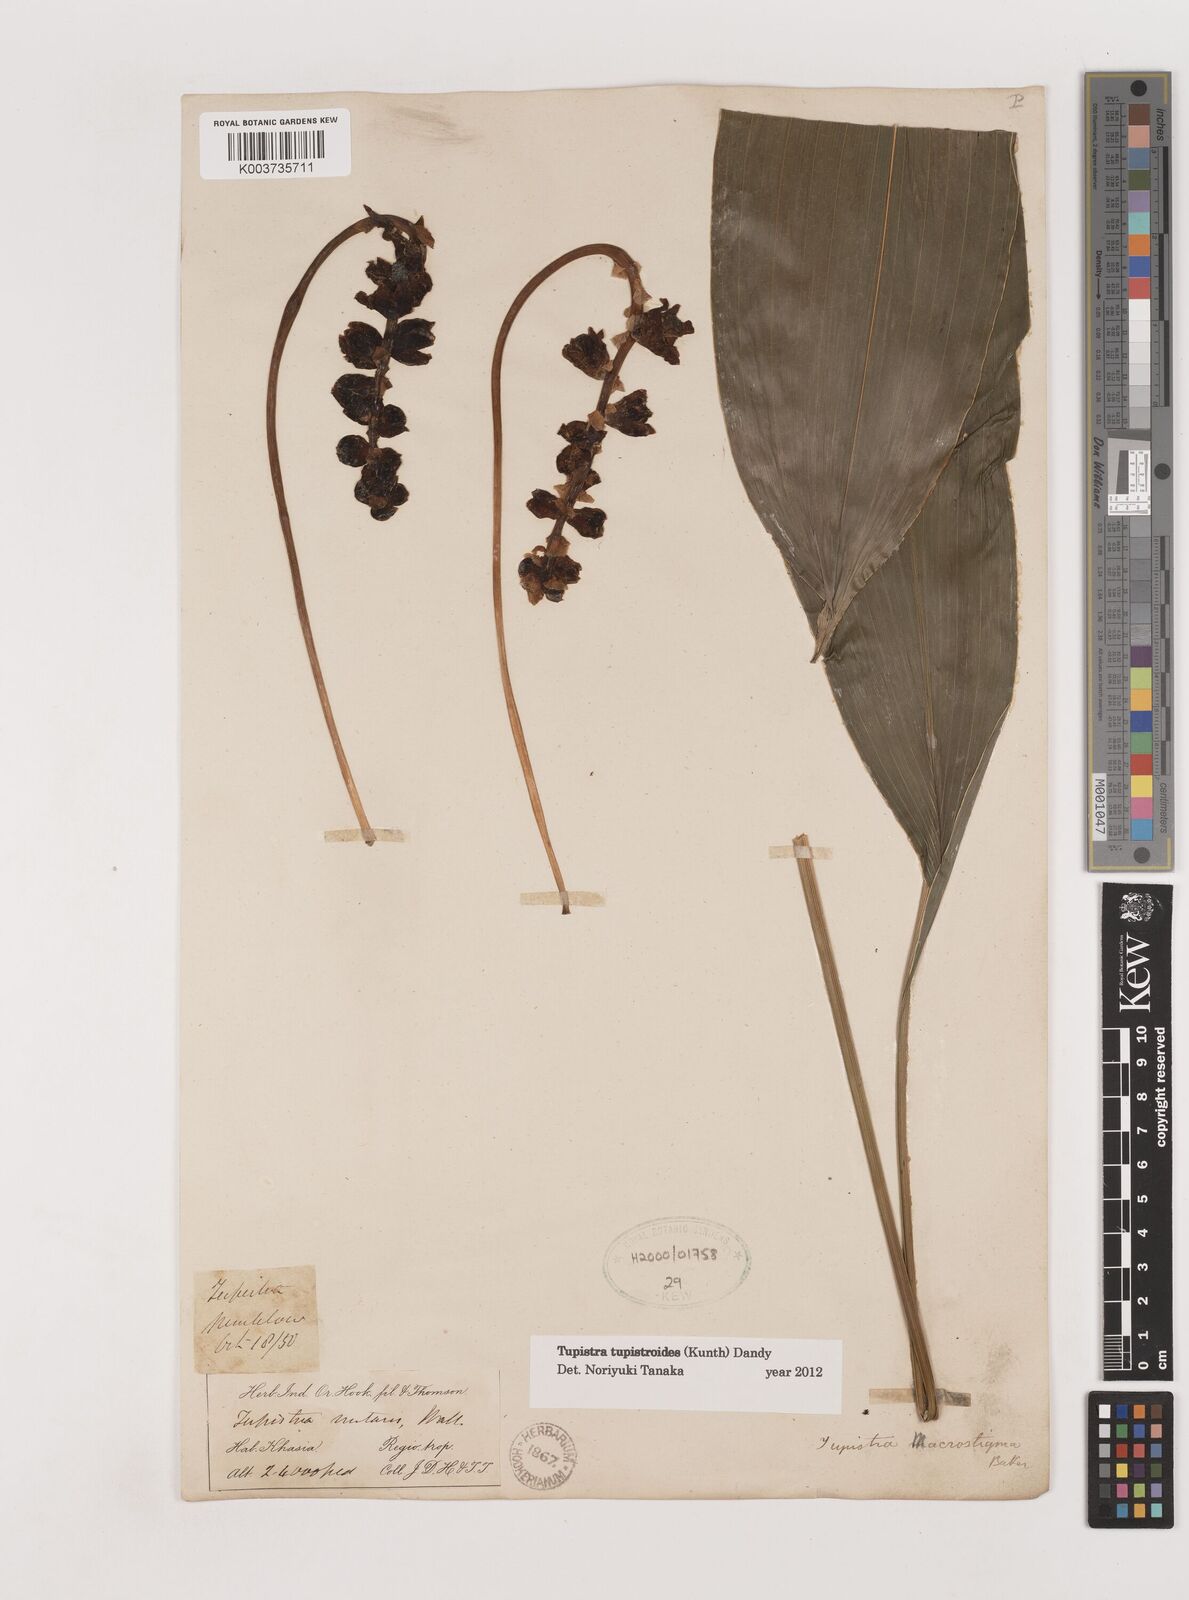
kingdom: Plantae
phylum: Tracheophyta
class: Liliopsida
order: Asparagales
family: Asparagaceae
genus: Tupistra
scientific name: Tupistra tupistroides
